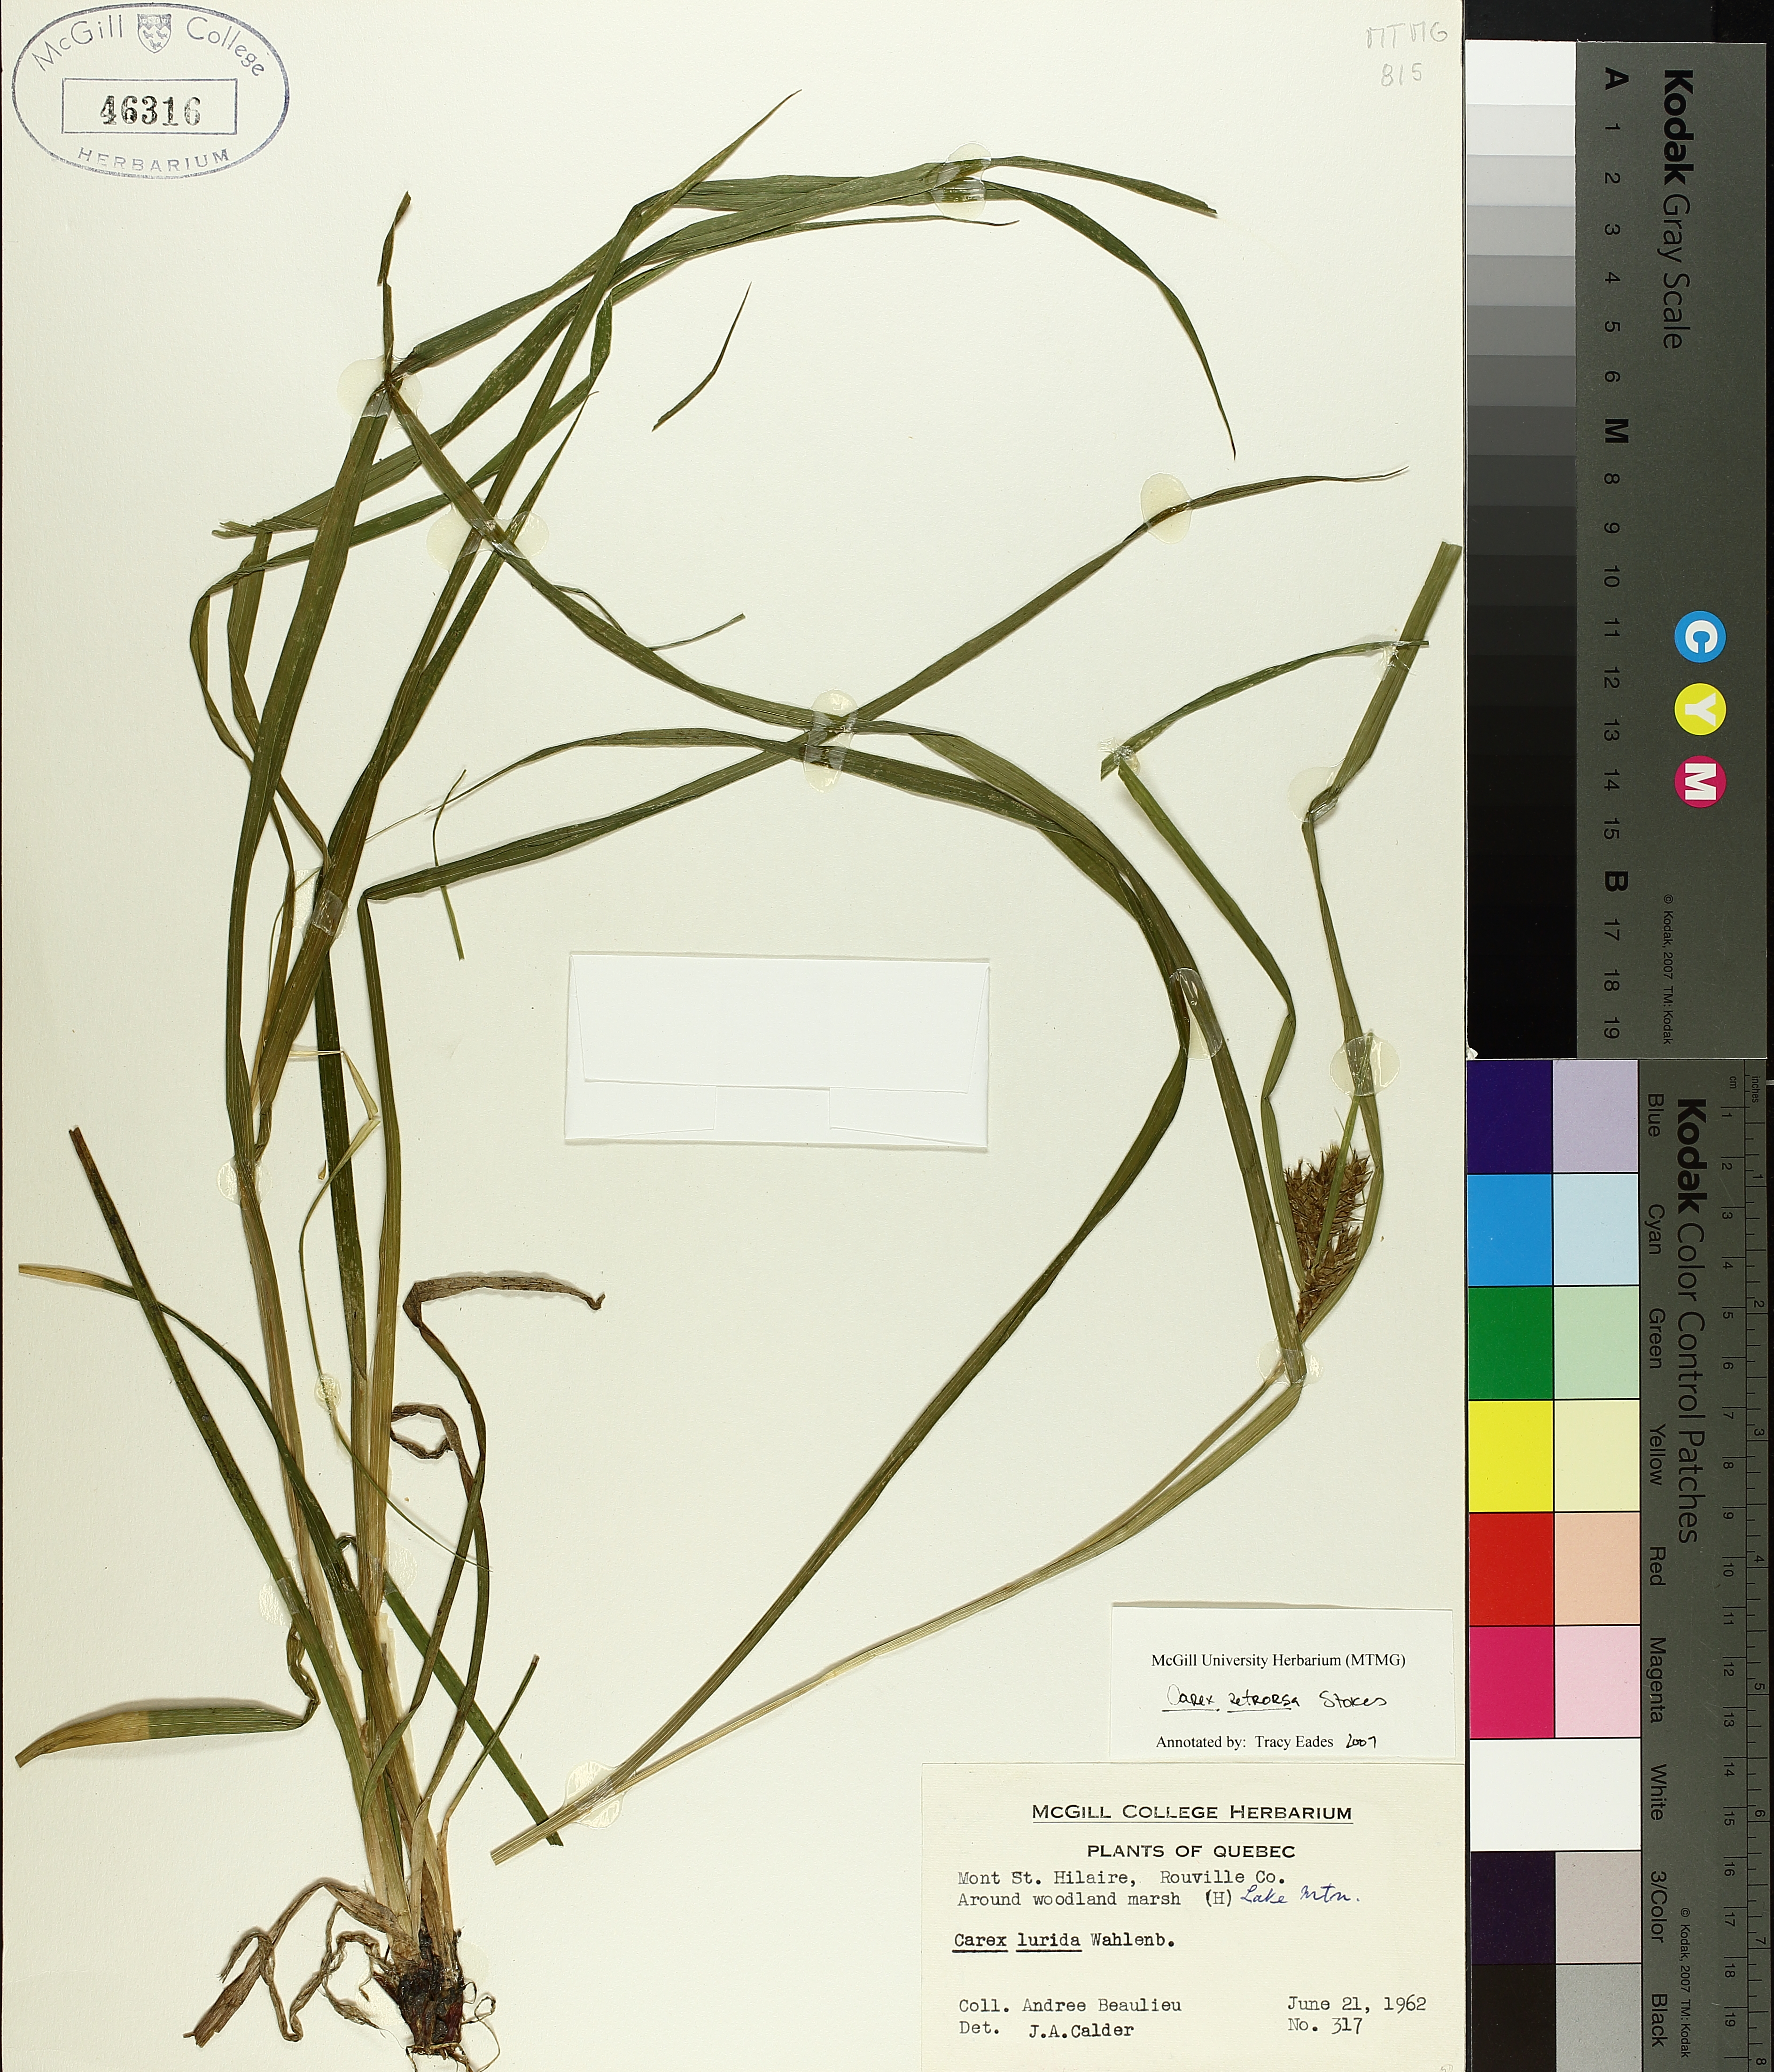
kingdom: Plantae
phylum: Tracheophyta
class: Liliopsida
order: Poales
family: Cyperaceae
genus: Carex
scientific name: Carex retrorsa
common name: Knot-sheath sedge
